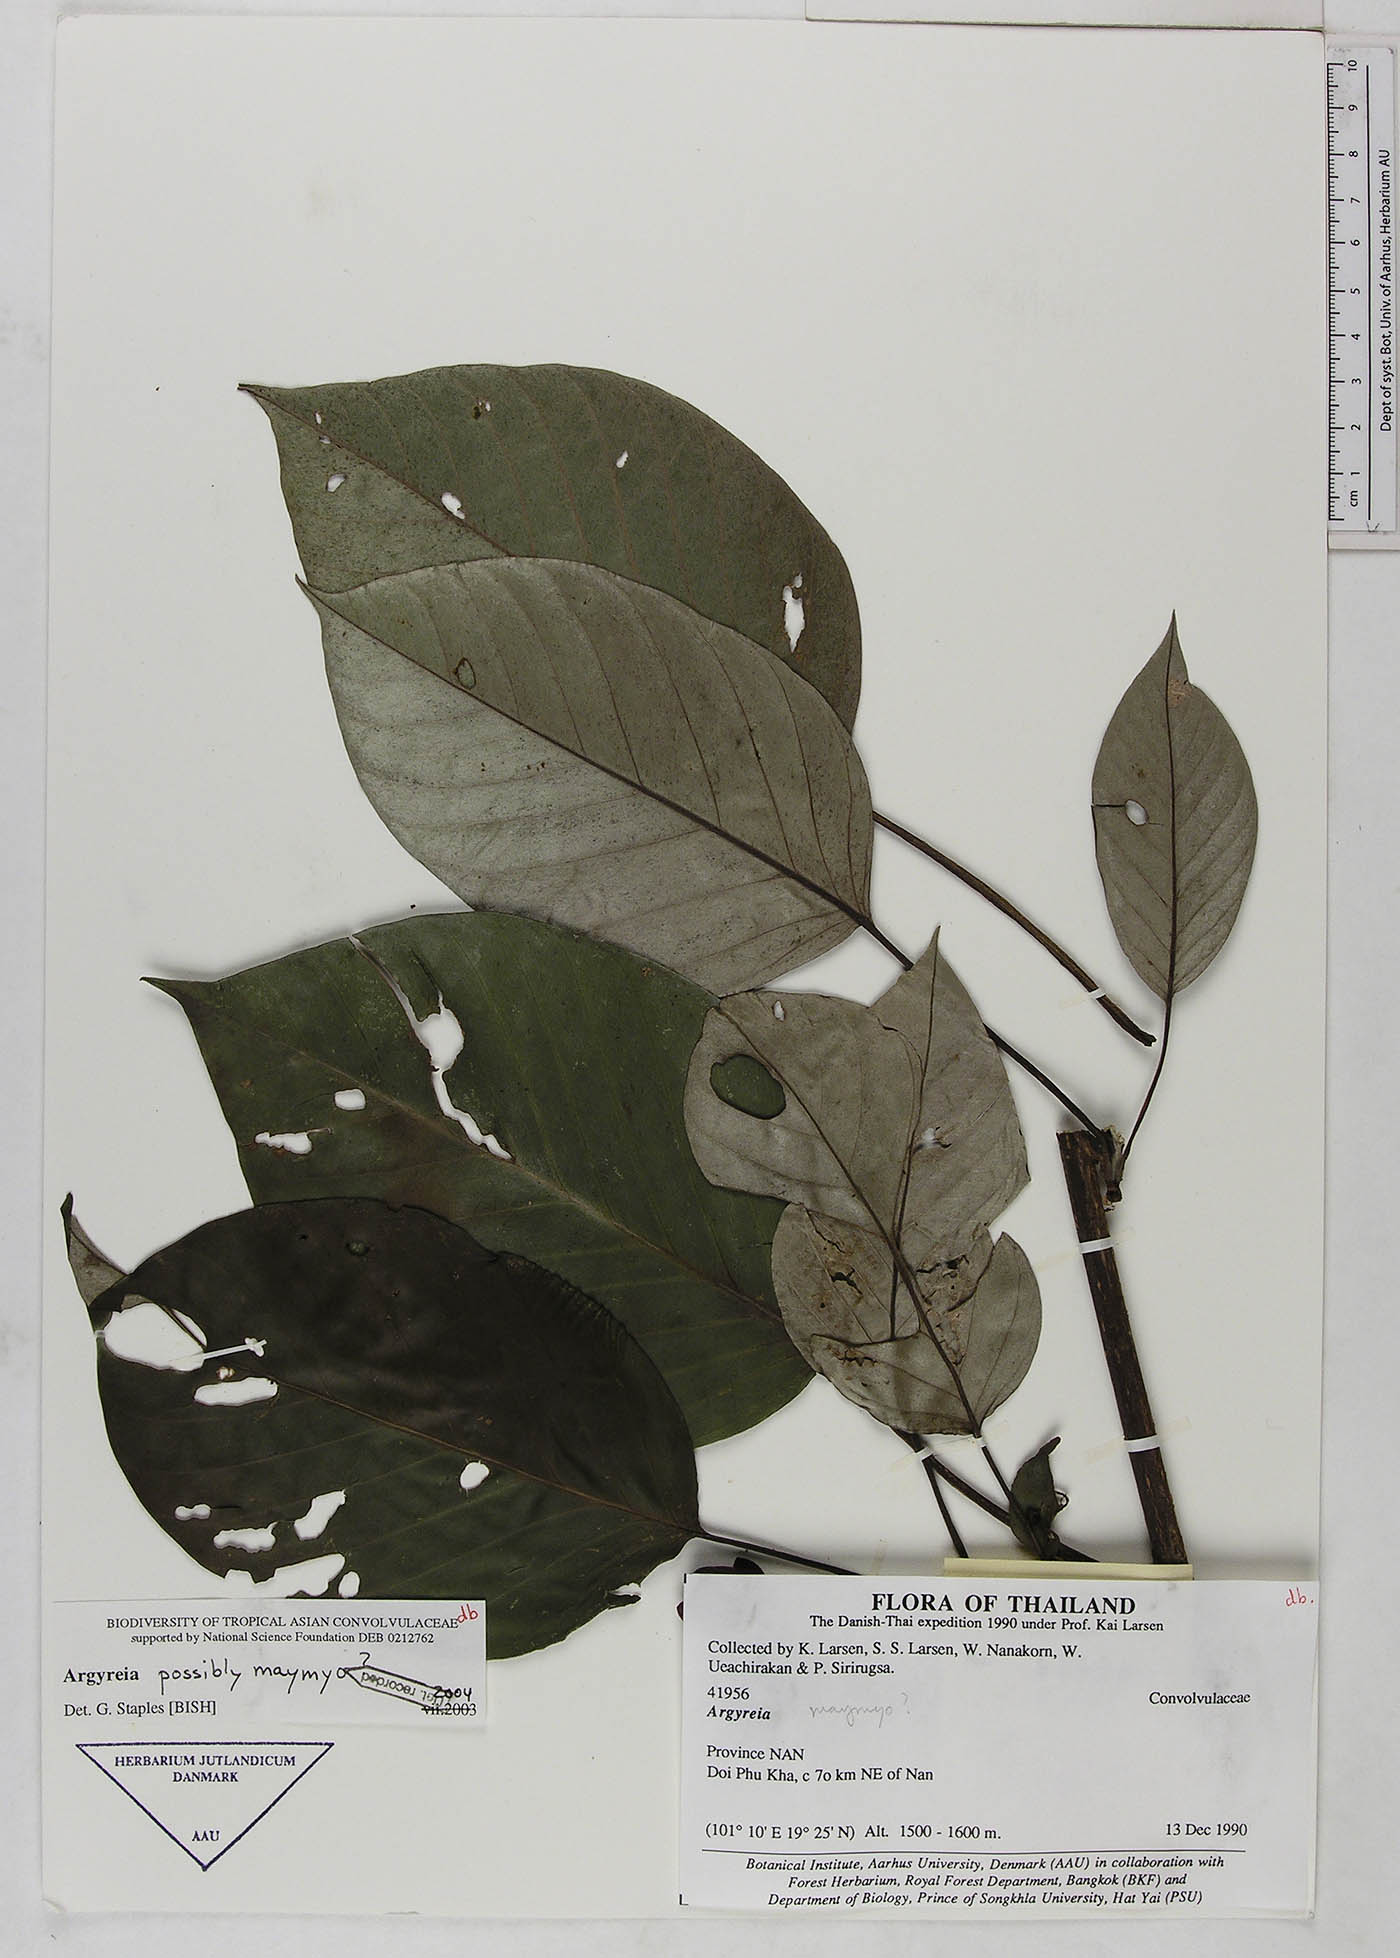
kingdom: Plantae
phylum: Tracheophyta
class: Magnoliopsida
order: Solanales
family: Convolvulaceae
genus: Argyreia
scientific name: Argyreia
